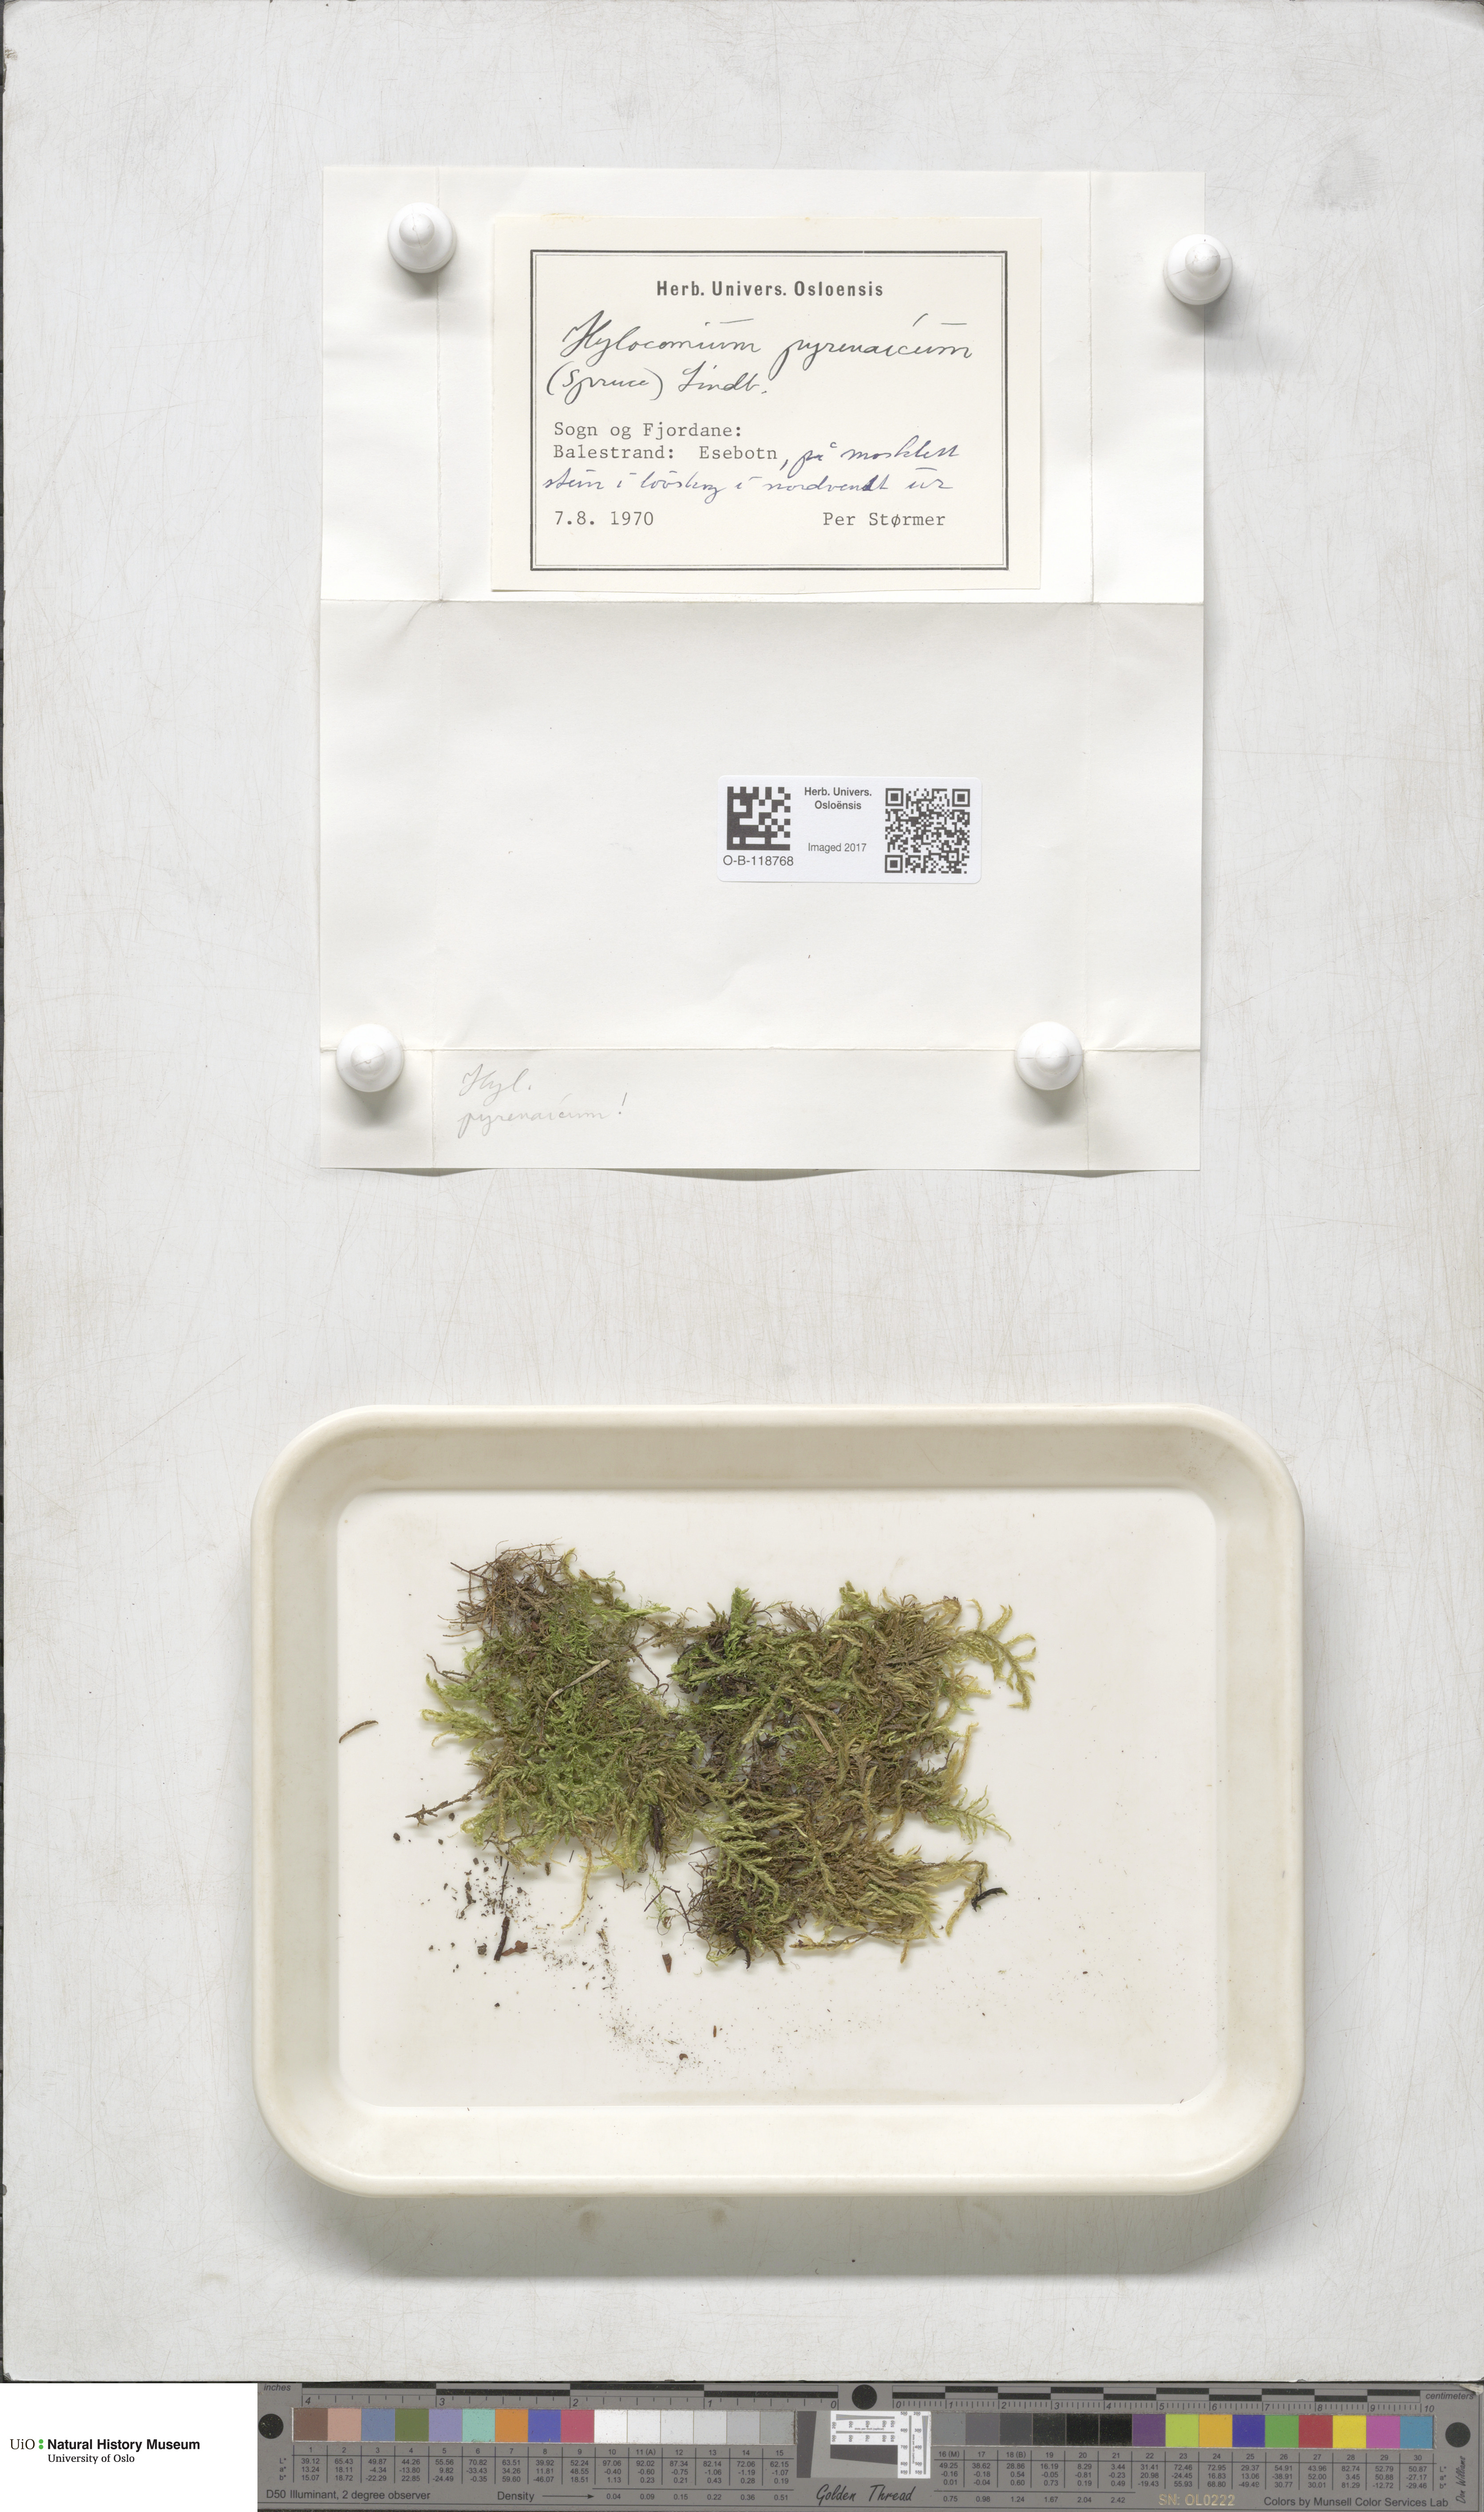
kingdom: Plantae
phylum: Bryophyta
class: Bryopsida
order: Hypnales
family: Hylocomiaceae
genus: Hylocomiastrum
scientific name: Hylocomiastrum pyrenaicum
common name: Oake s wood moss
